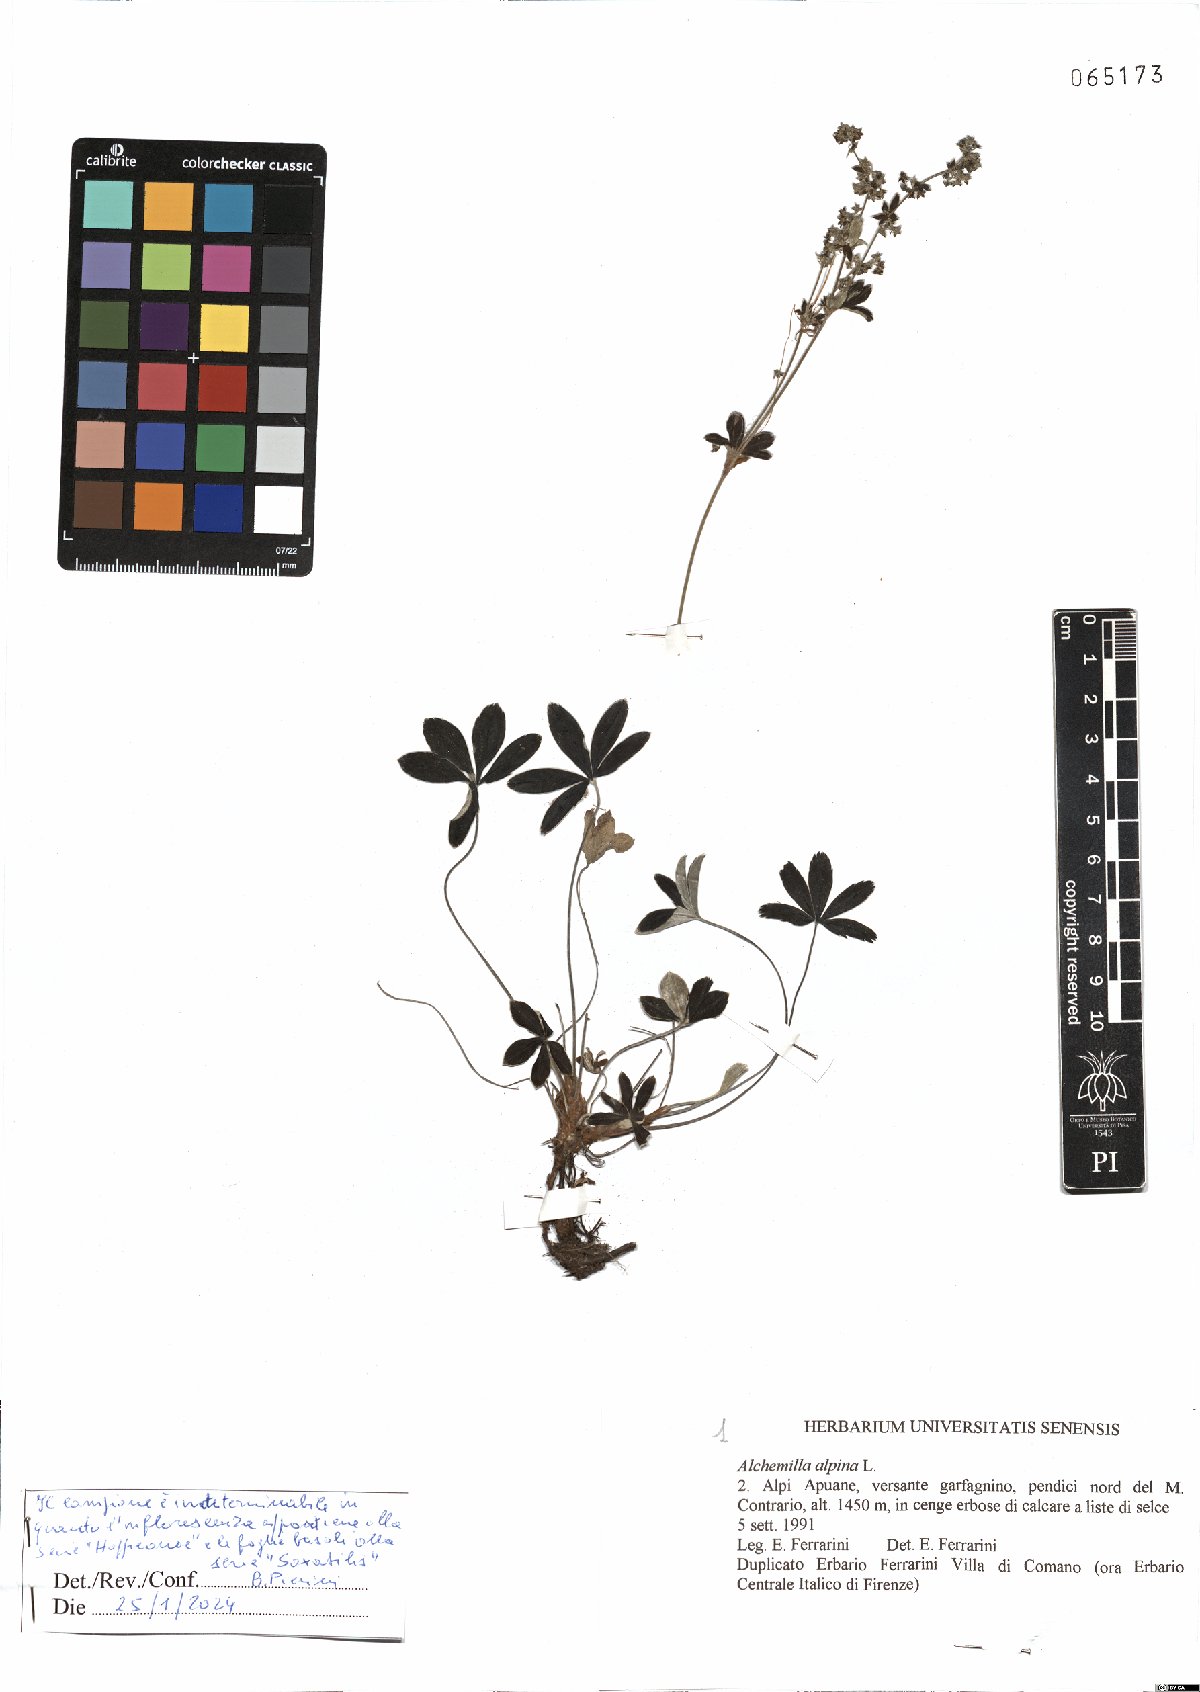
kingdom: Plantae
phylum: Tracheophyta
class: Magnoliopsida
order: Rosales
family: Rosaceae
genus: Alchemilla
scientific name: Alchemilla
